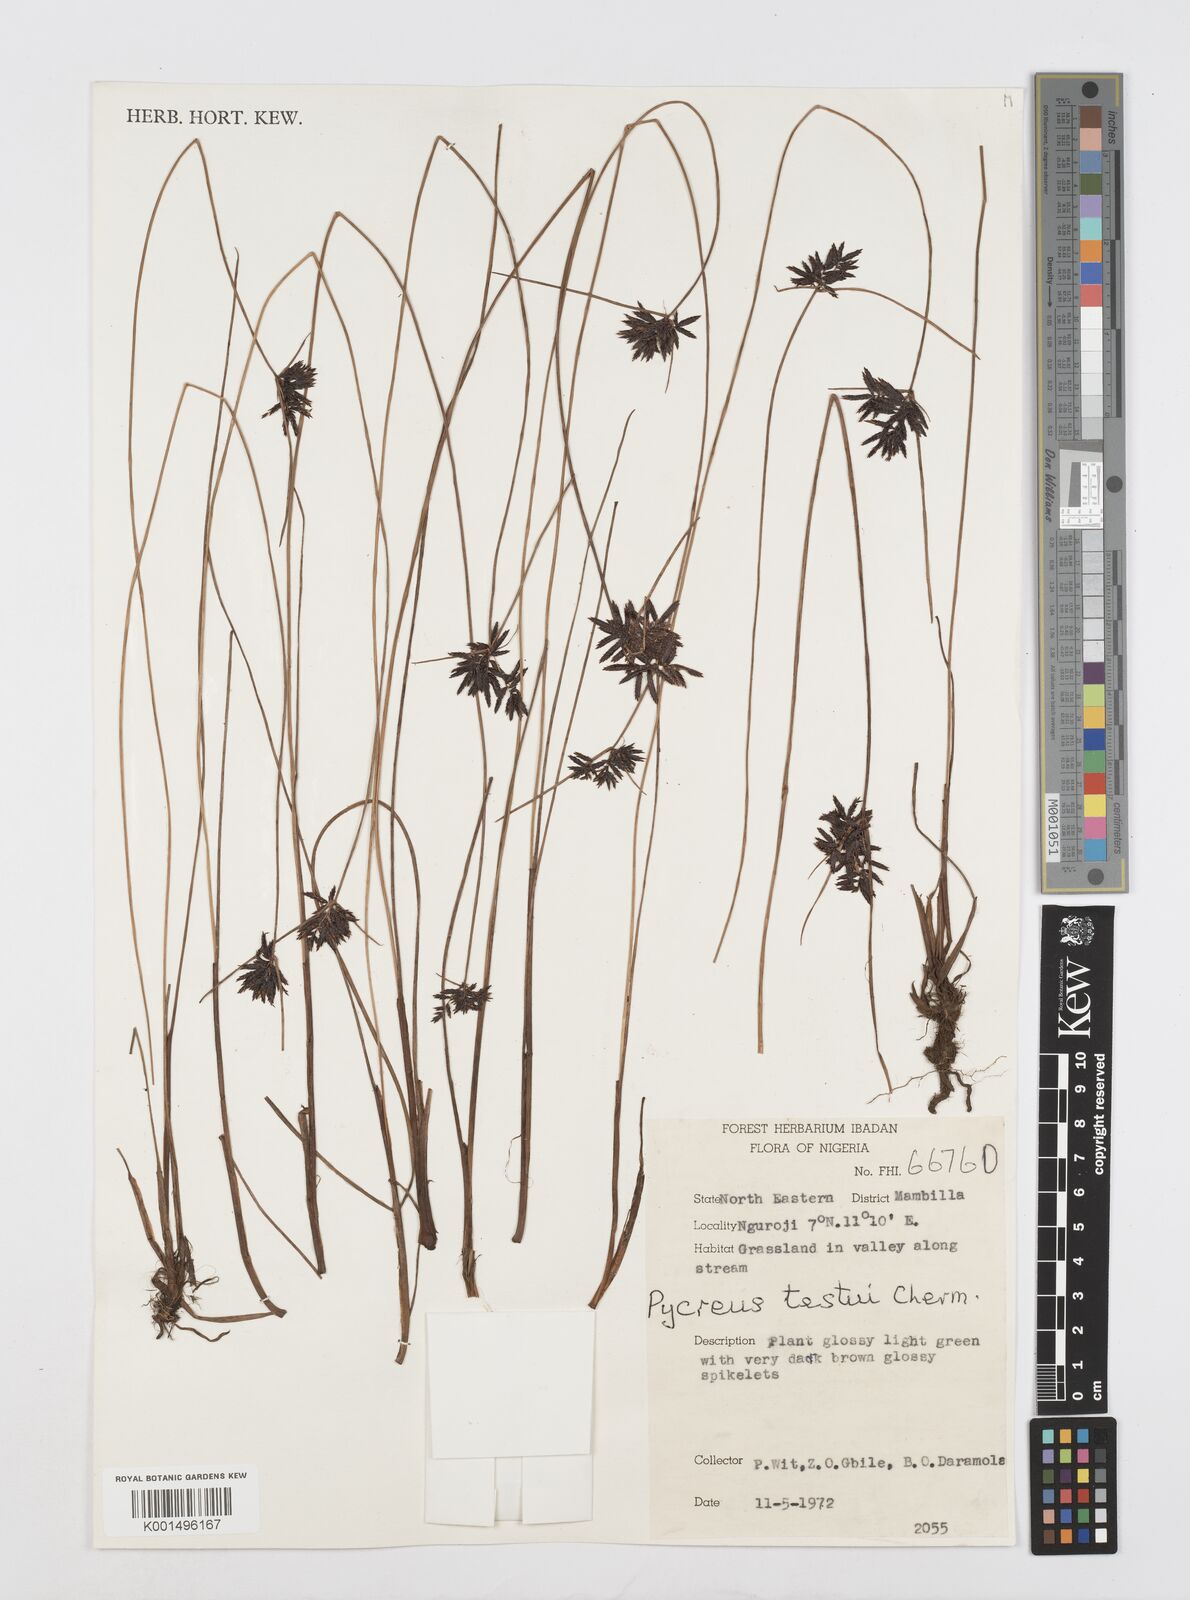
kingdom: Plantae
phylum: Tracheophyta
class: Liliopsida
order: Poales
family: Cyperaceae
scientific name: Cyperaceae
